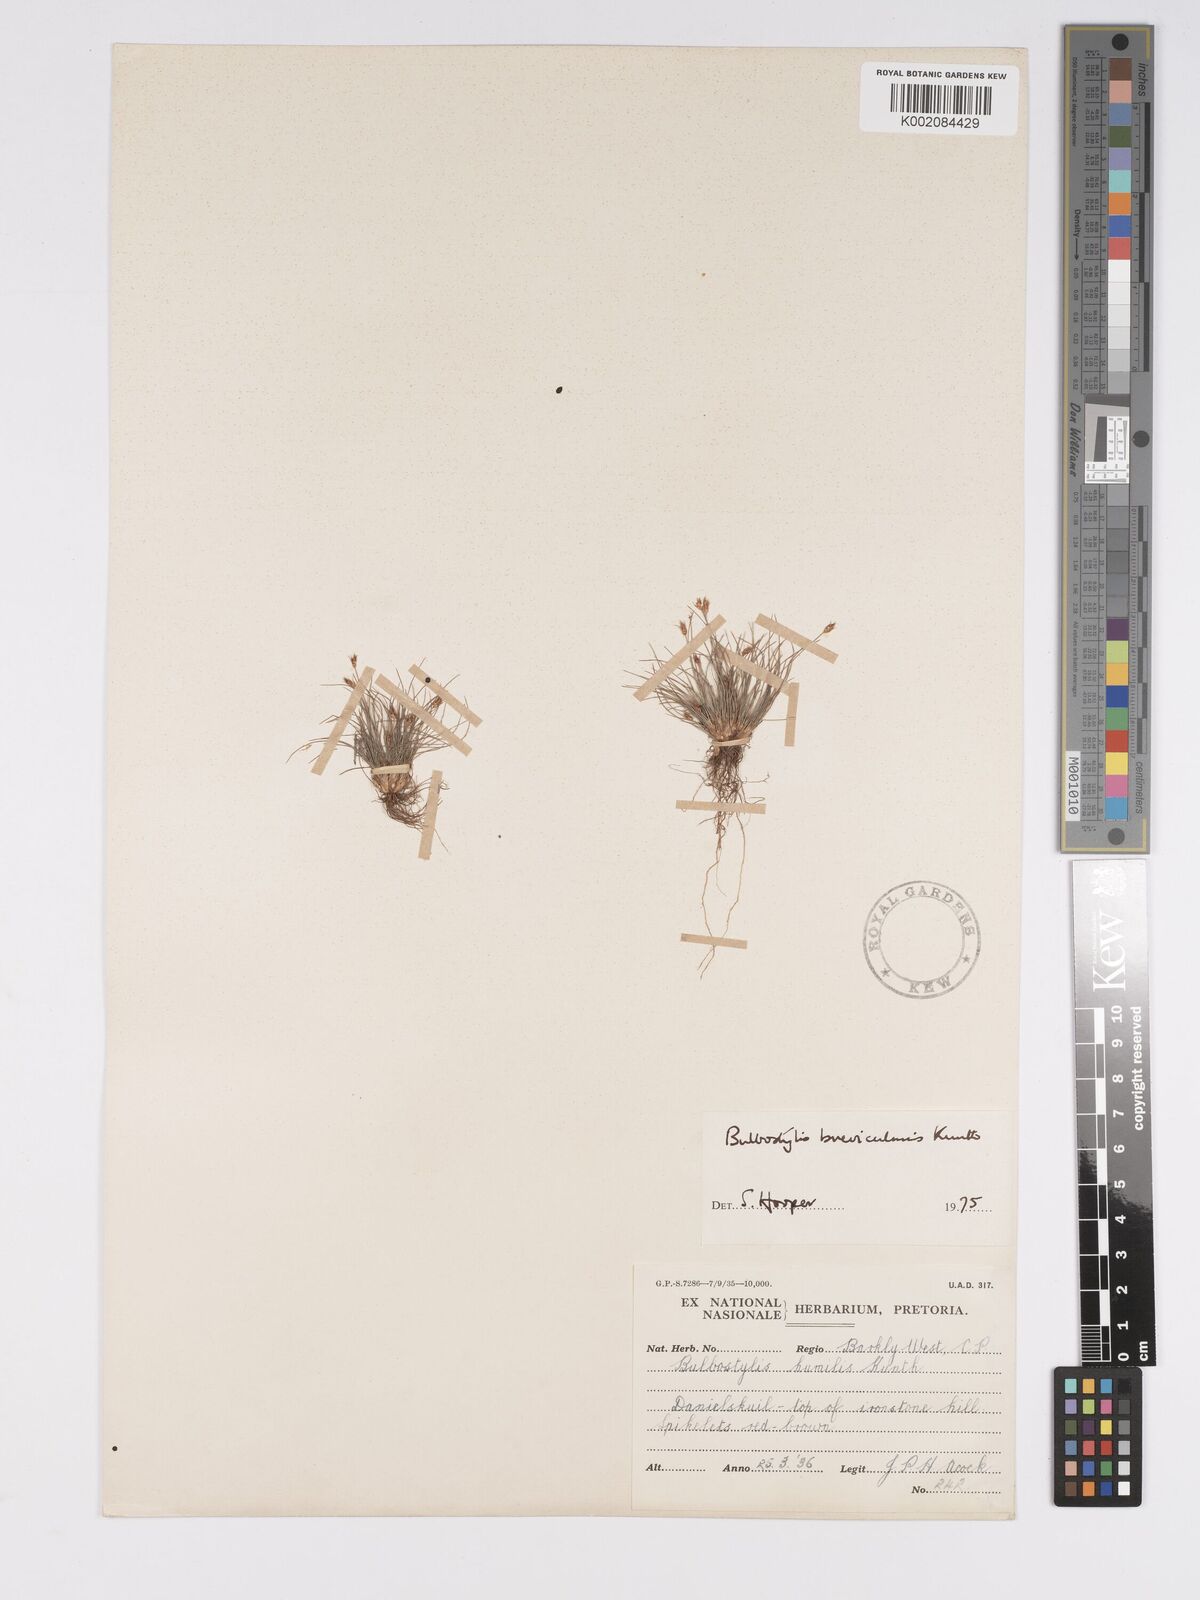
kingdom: Plantae
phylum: Tracheophyta
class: Liliopsida
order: Poales
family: Cyperaceae
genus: Bulbostylis
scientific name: Bulbostylis humilis
